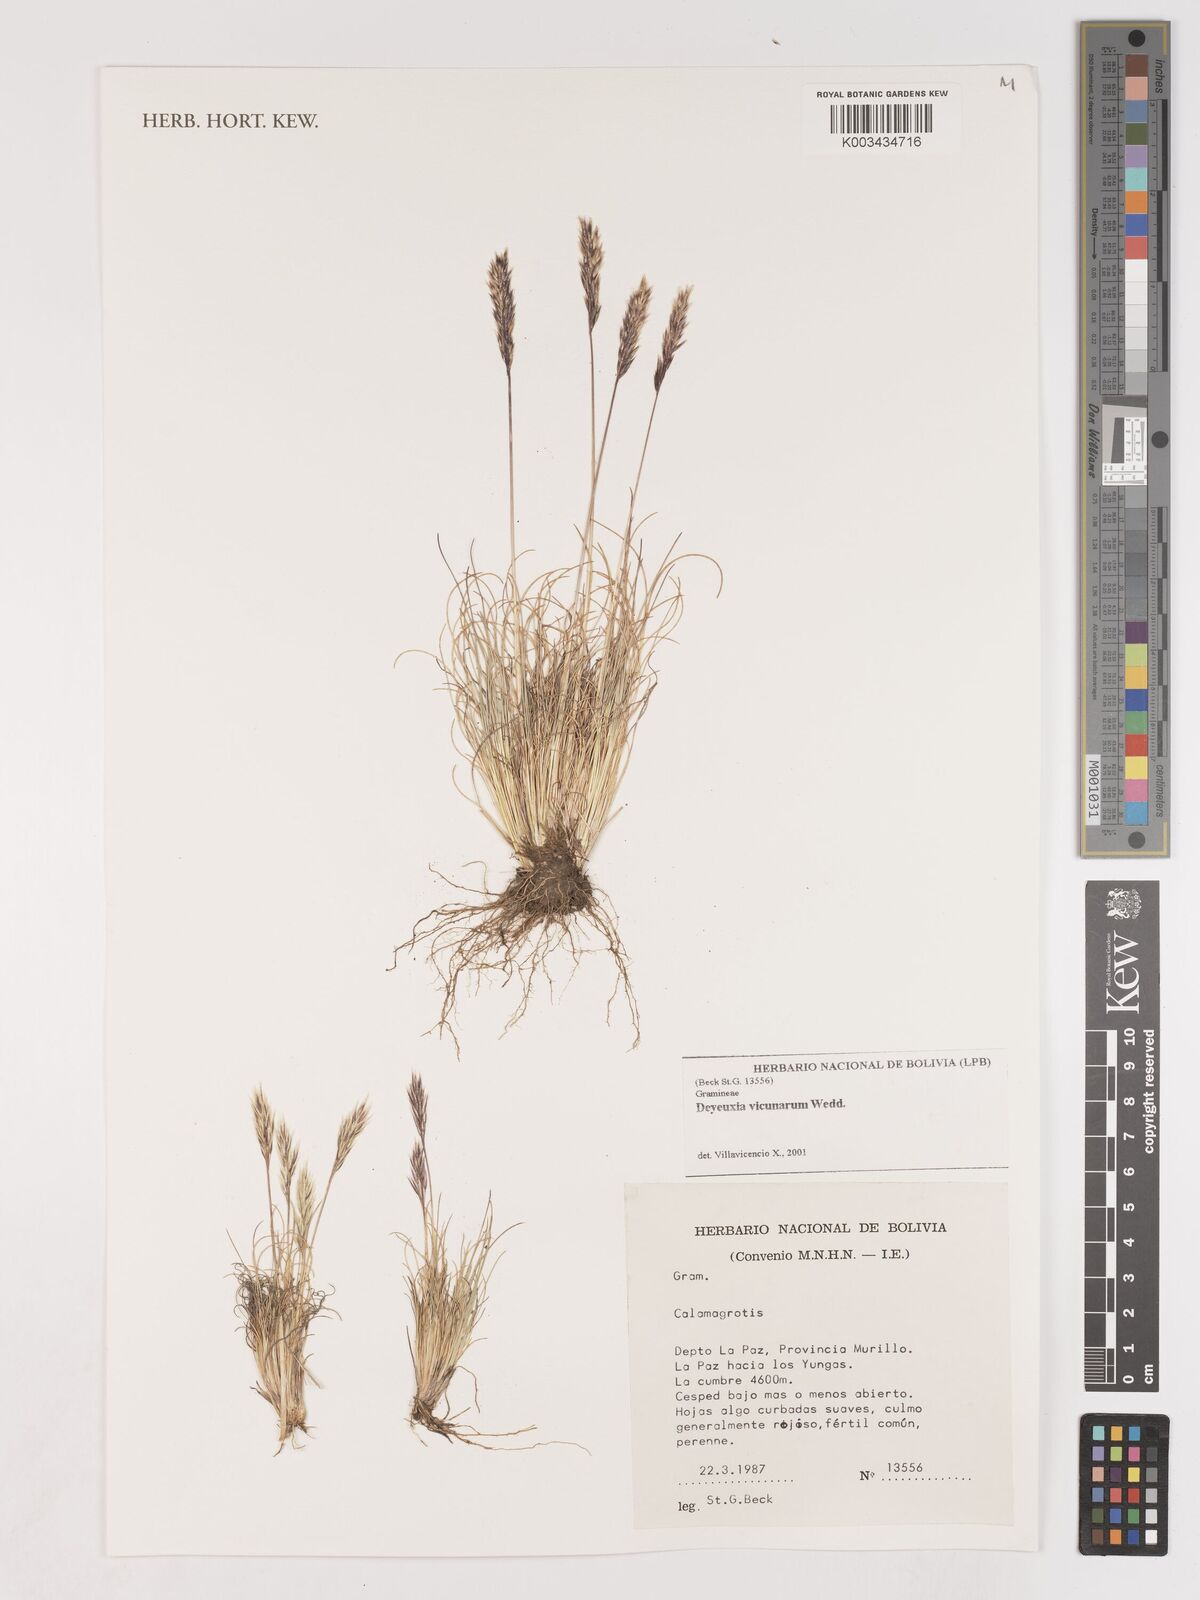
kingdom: Plantae
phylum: Tracheophyta
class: Liliopsida
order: Poales
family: Poaceae
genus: Cinnagrostis
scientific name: Cinnagrostis vicunarum
